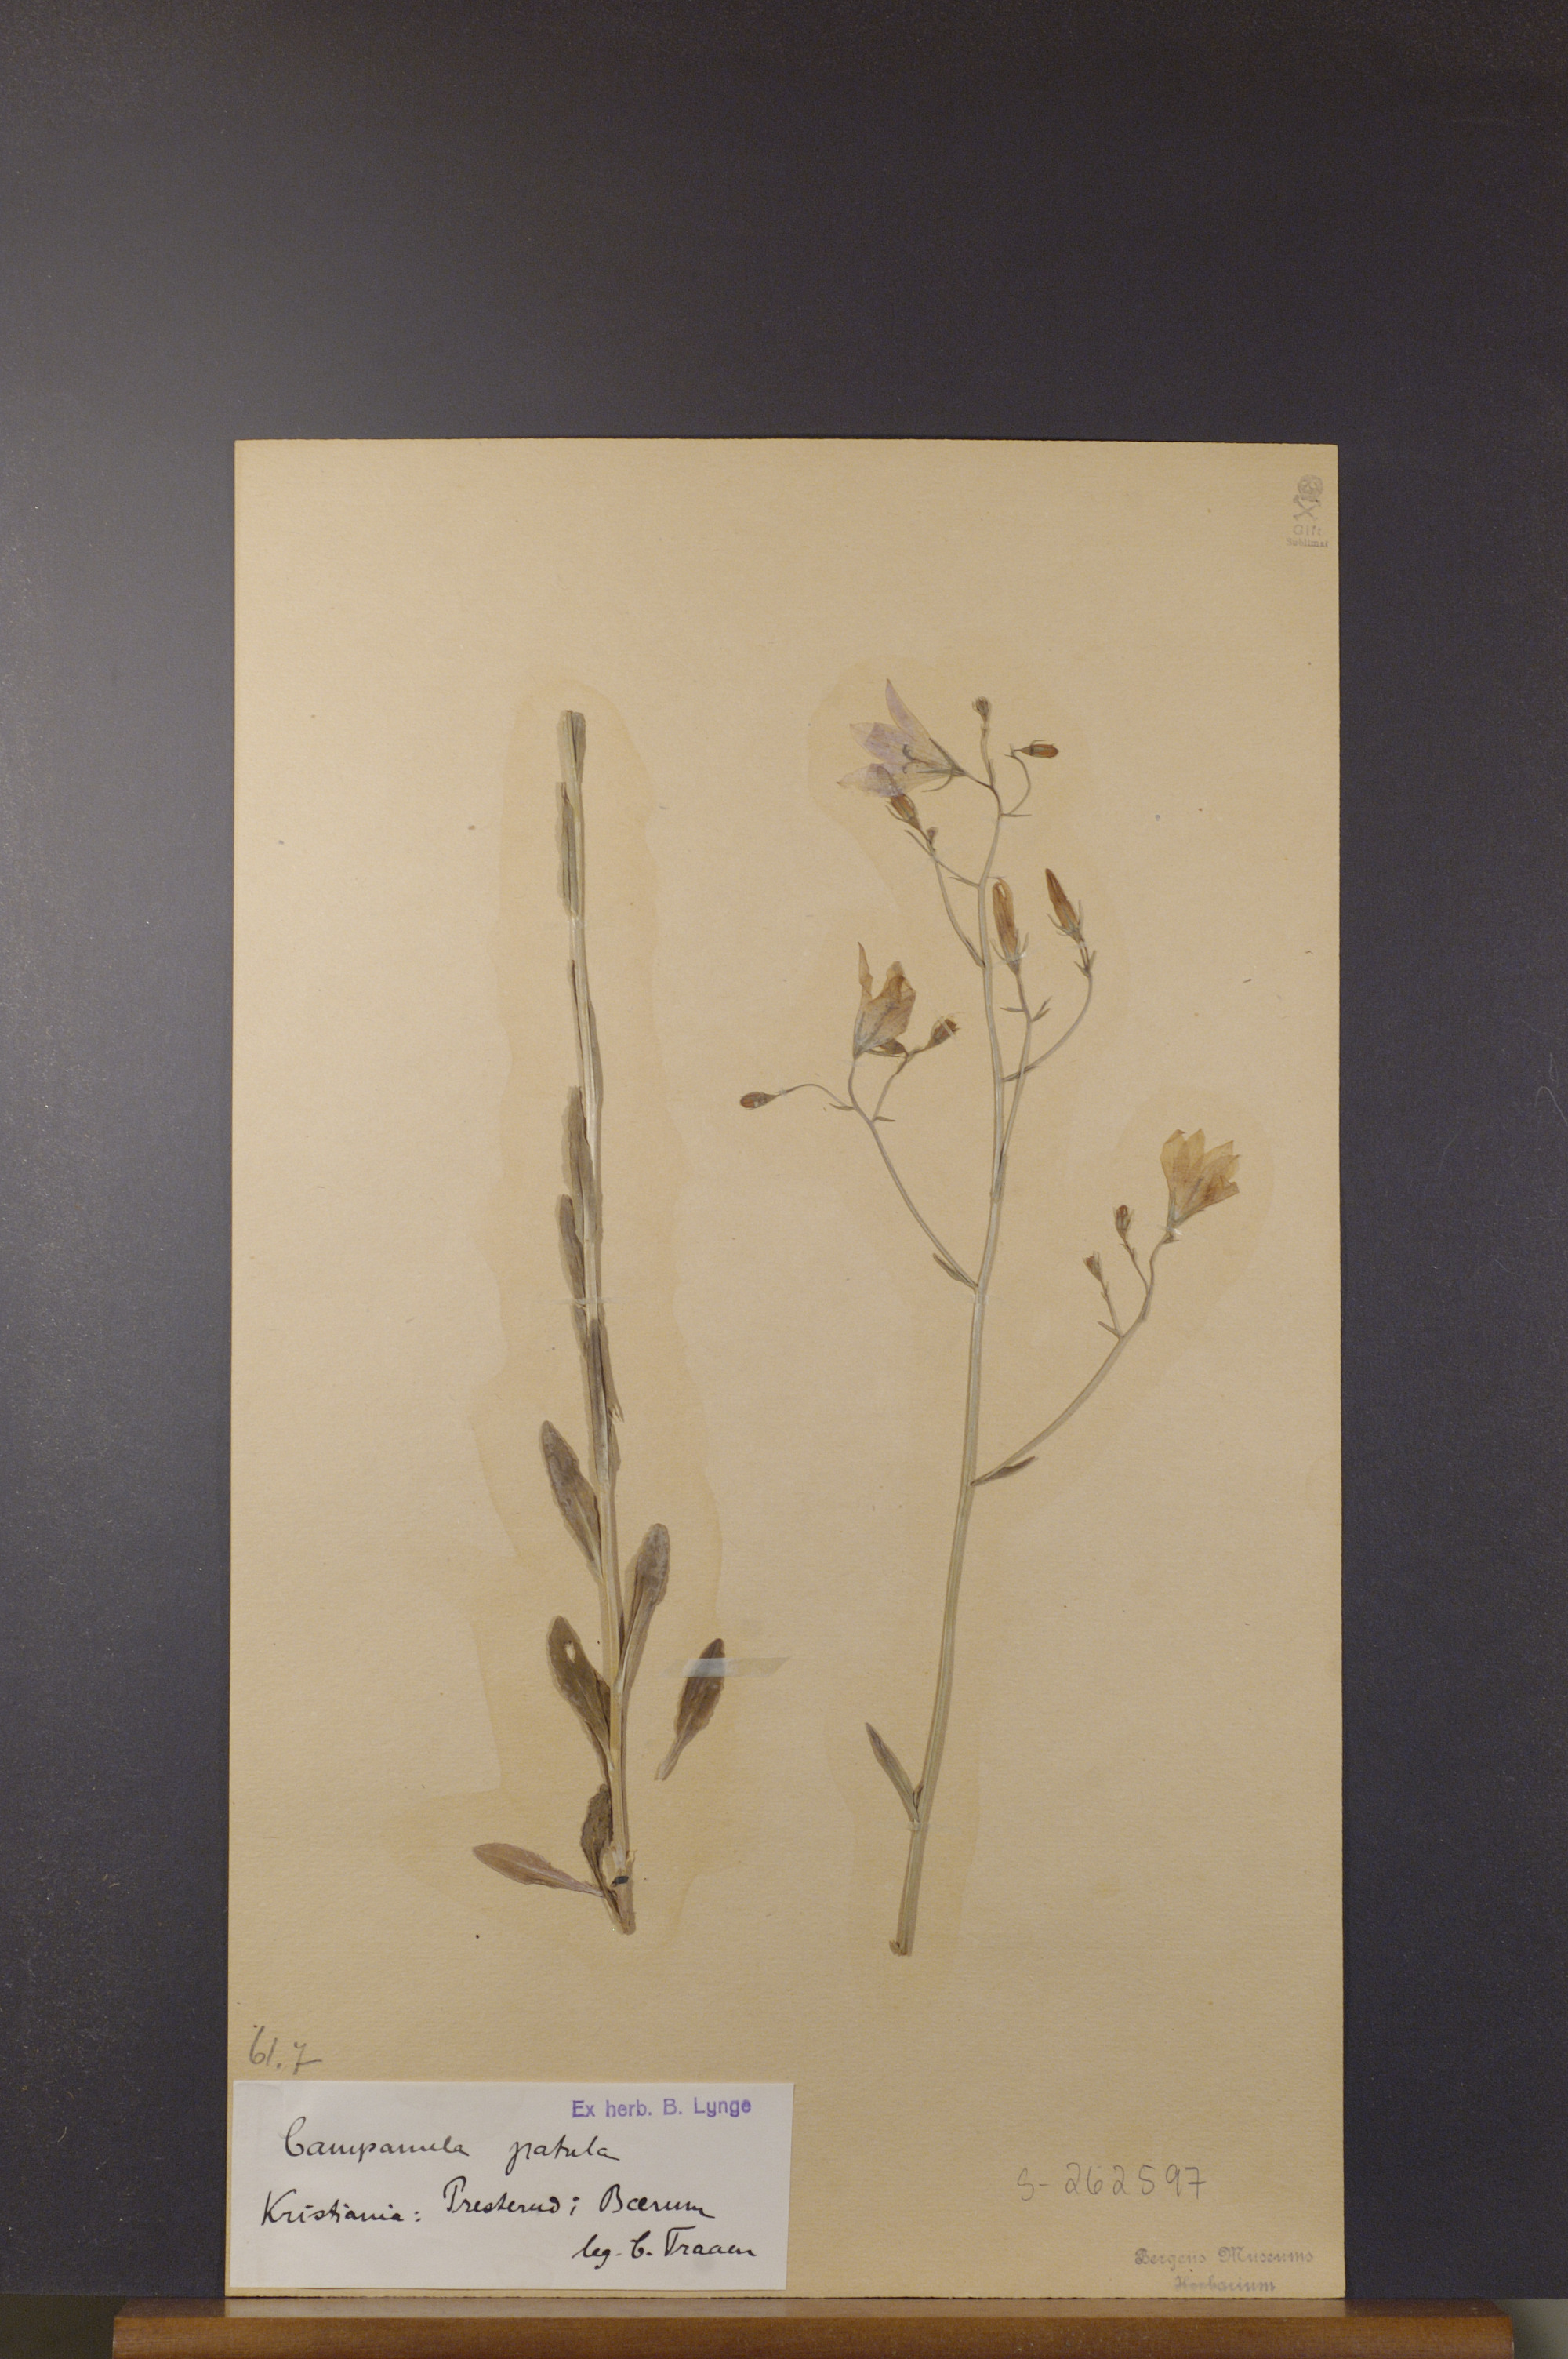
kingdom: Plantae
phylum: Tracheophyta
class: Magnoliopsida
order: Asterales
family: Campanulaceae
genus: Campanula
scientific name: Campanula patula
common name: Spreading bellflower
